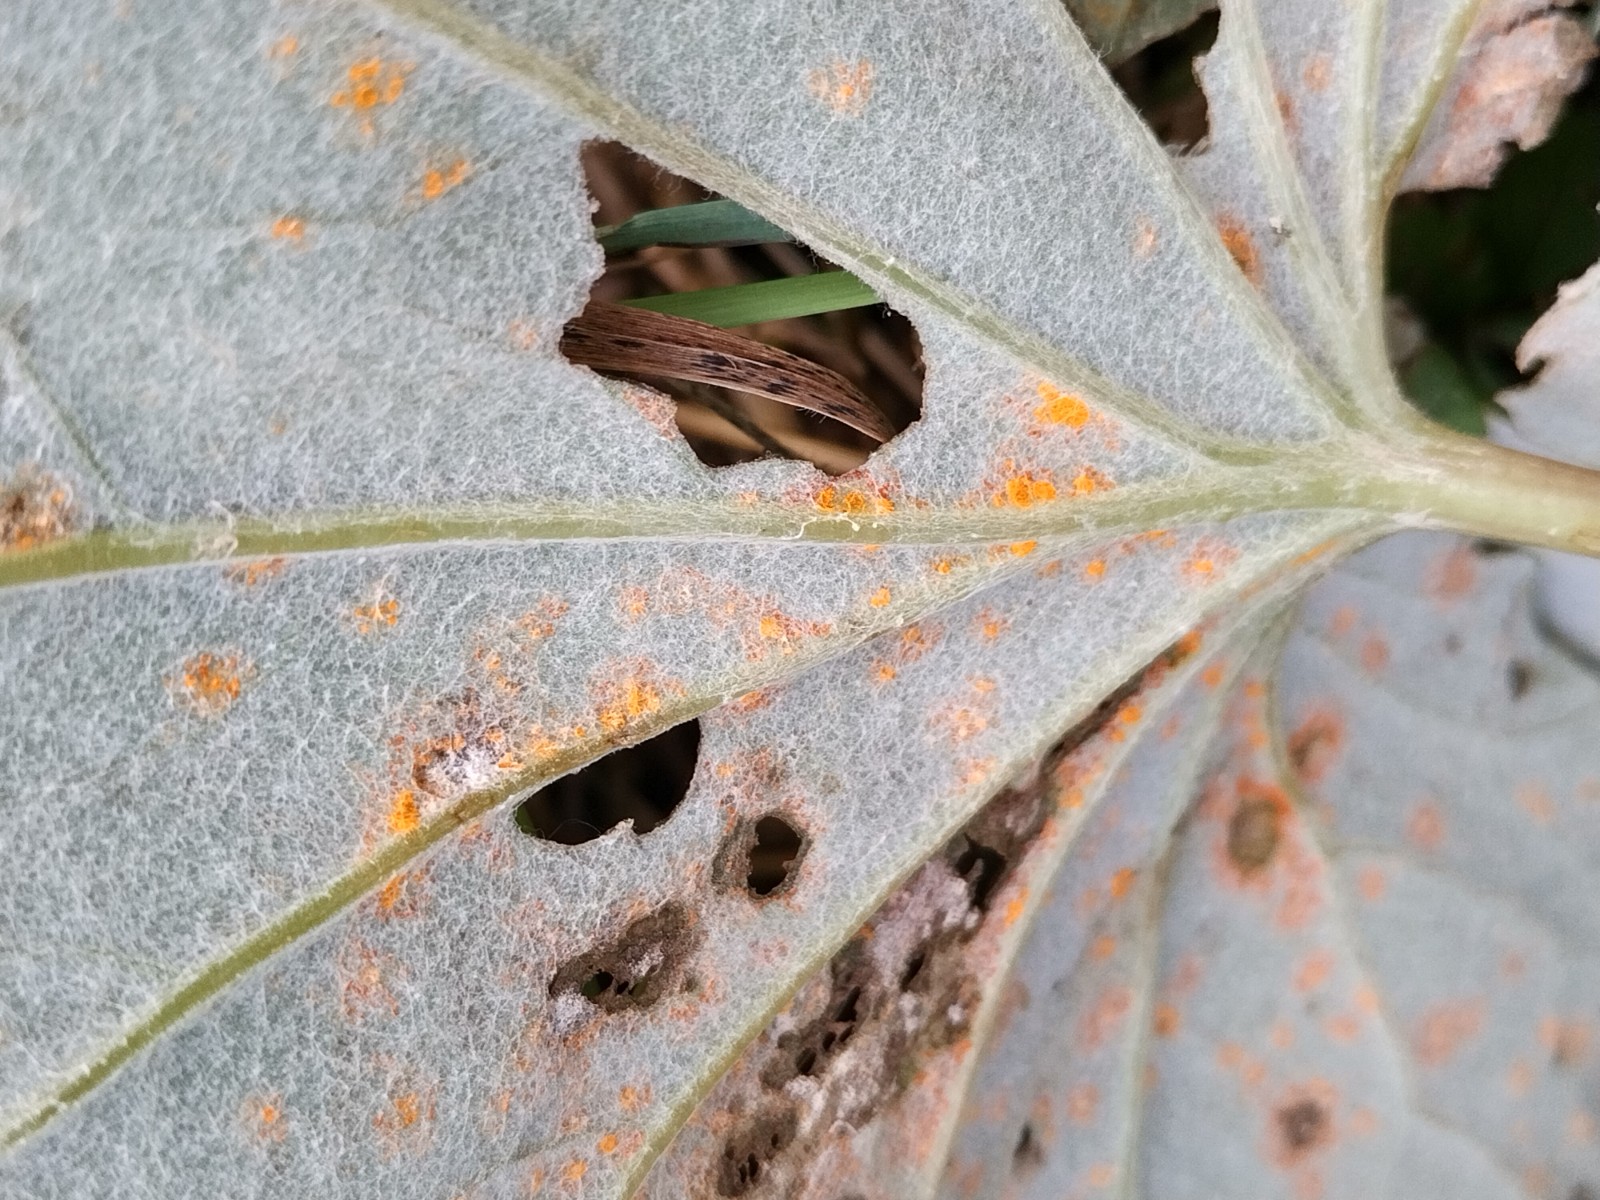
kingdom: Fungi
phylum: Basidiomycota
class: Pucciniomycetes
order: Pucciniales
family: Coleosporiaceae
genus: Coleosporium
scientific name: Coleosporium tussilaginis
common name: almindelig fyrrenålerust
